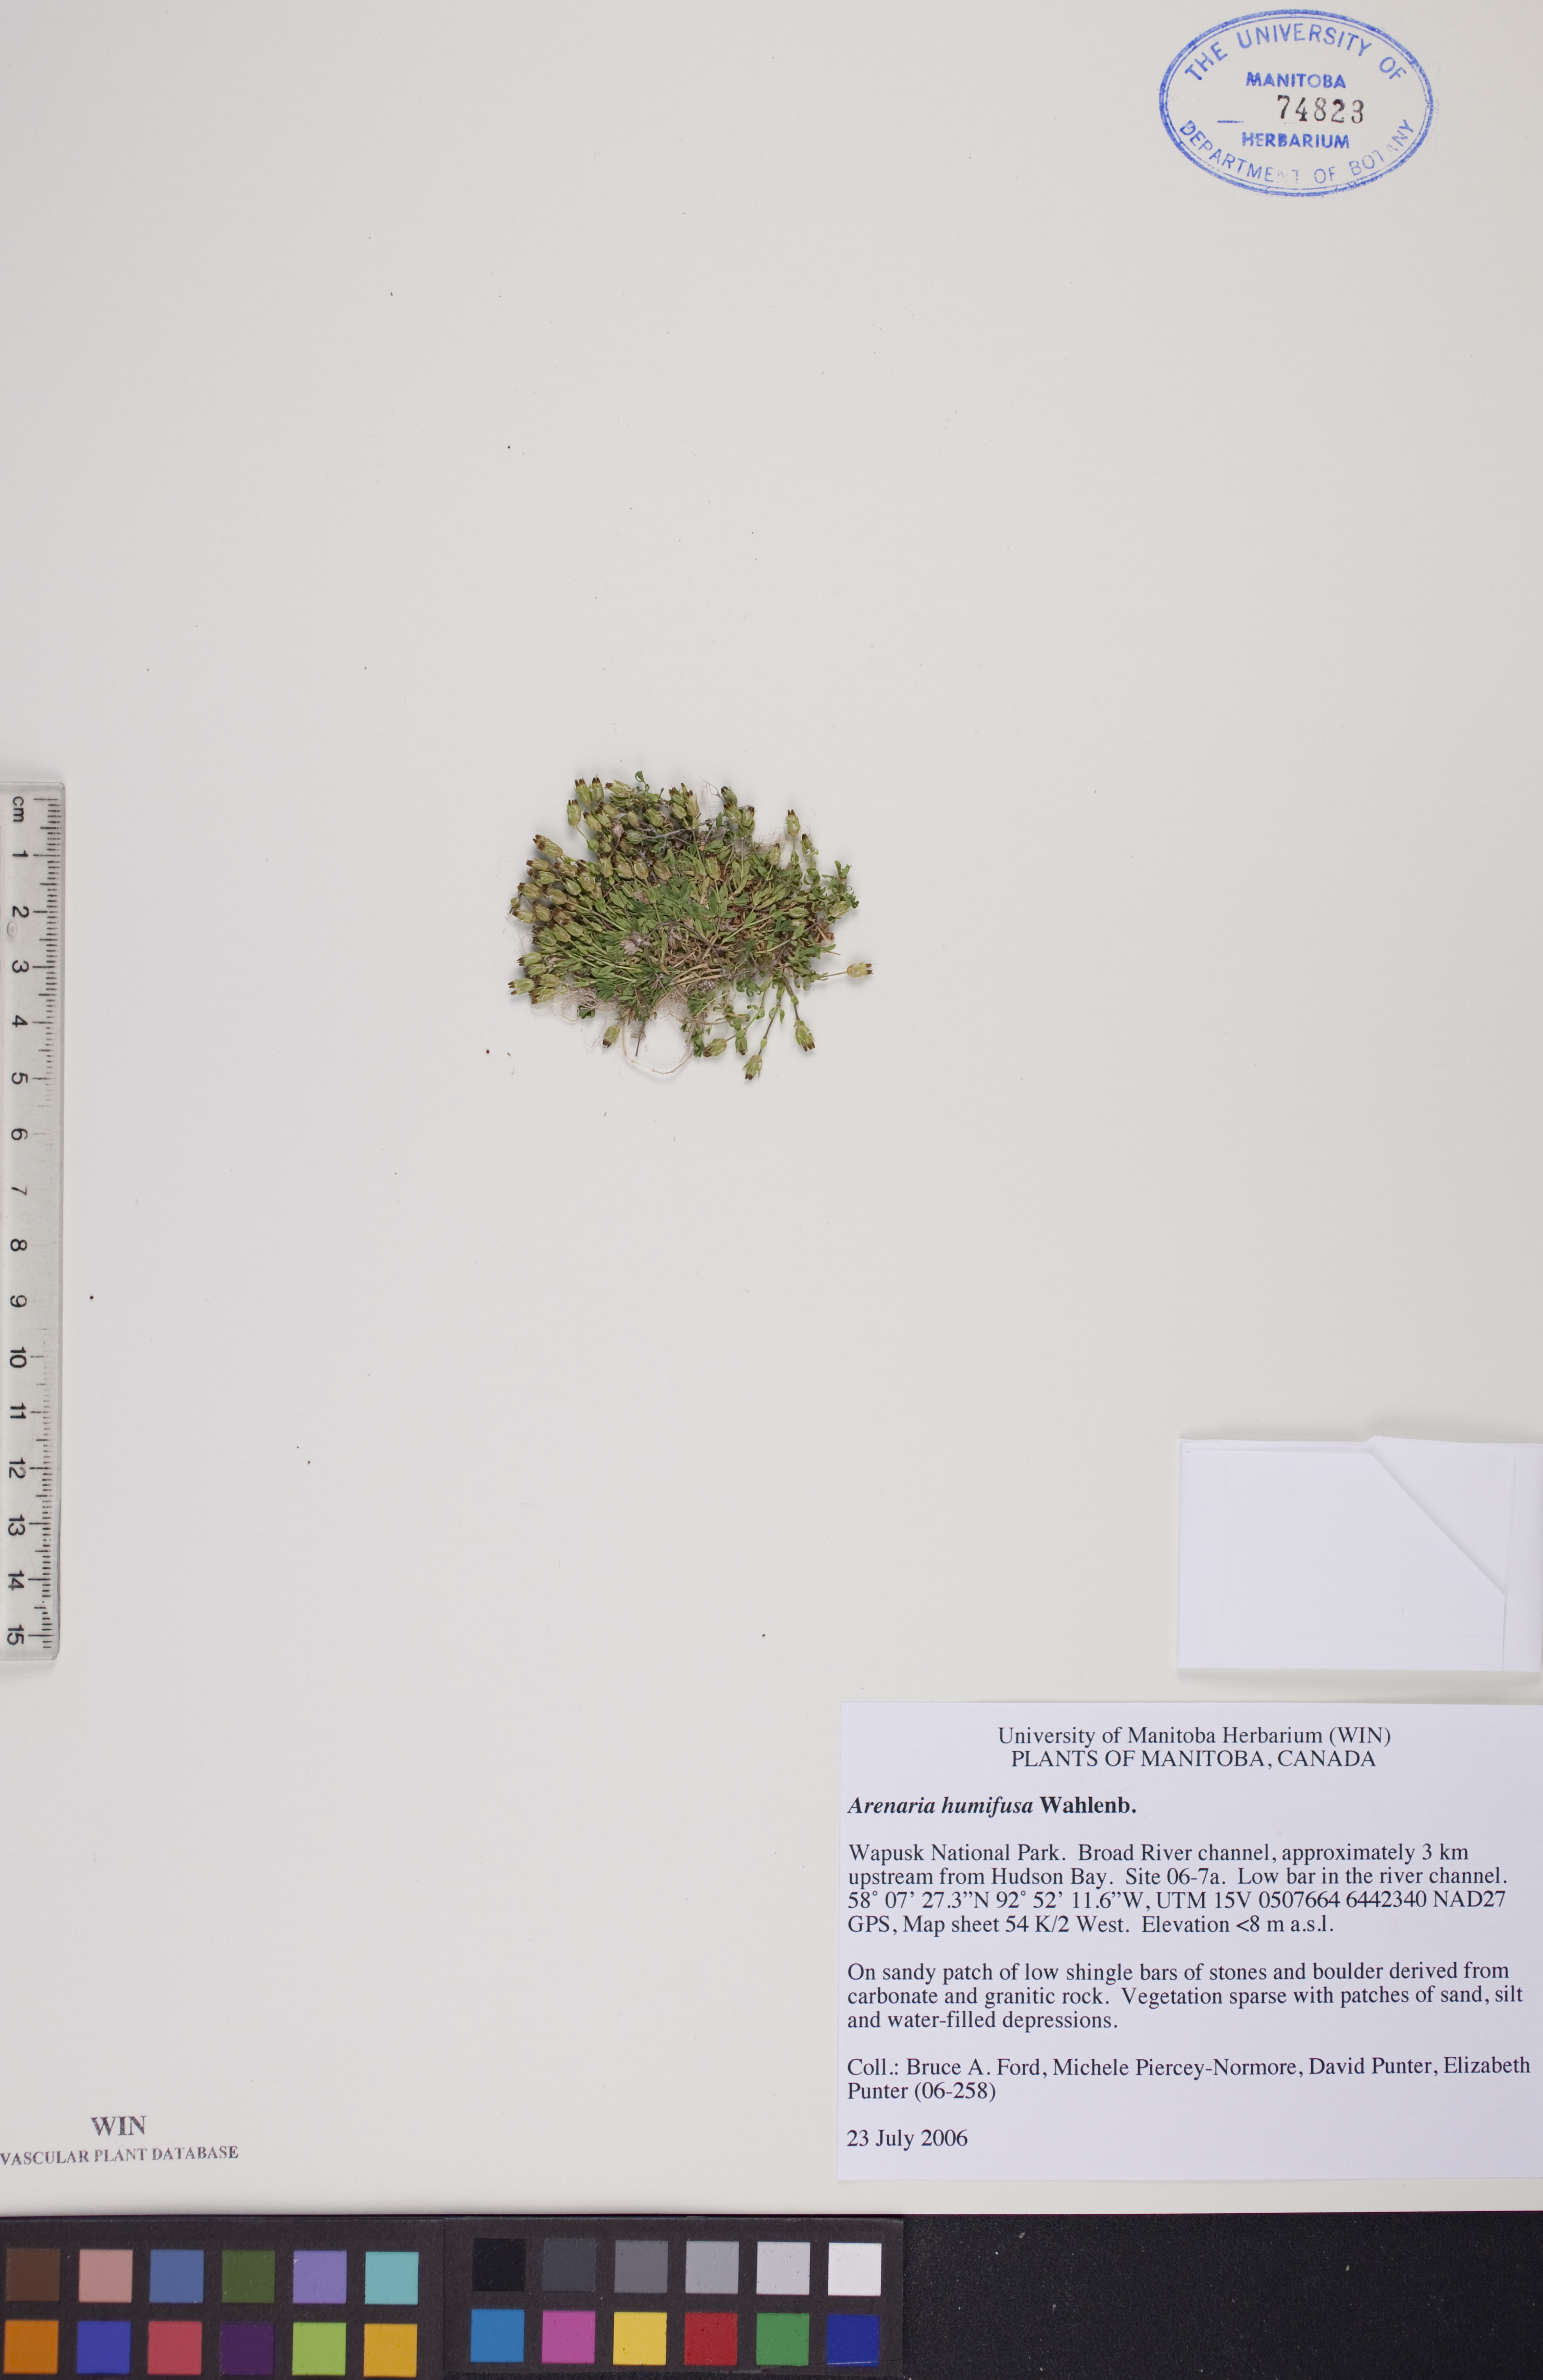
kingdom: Plantae
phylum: Tracheophyta
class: Magnoliopsida
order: Caryophyllales
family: Caryophyllaceae
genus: Arenaria
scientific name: Arenaria humifusa
